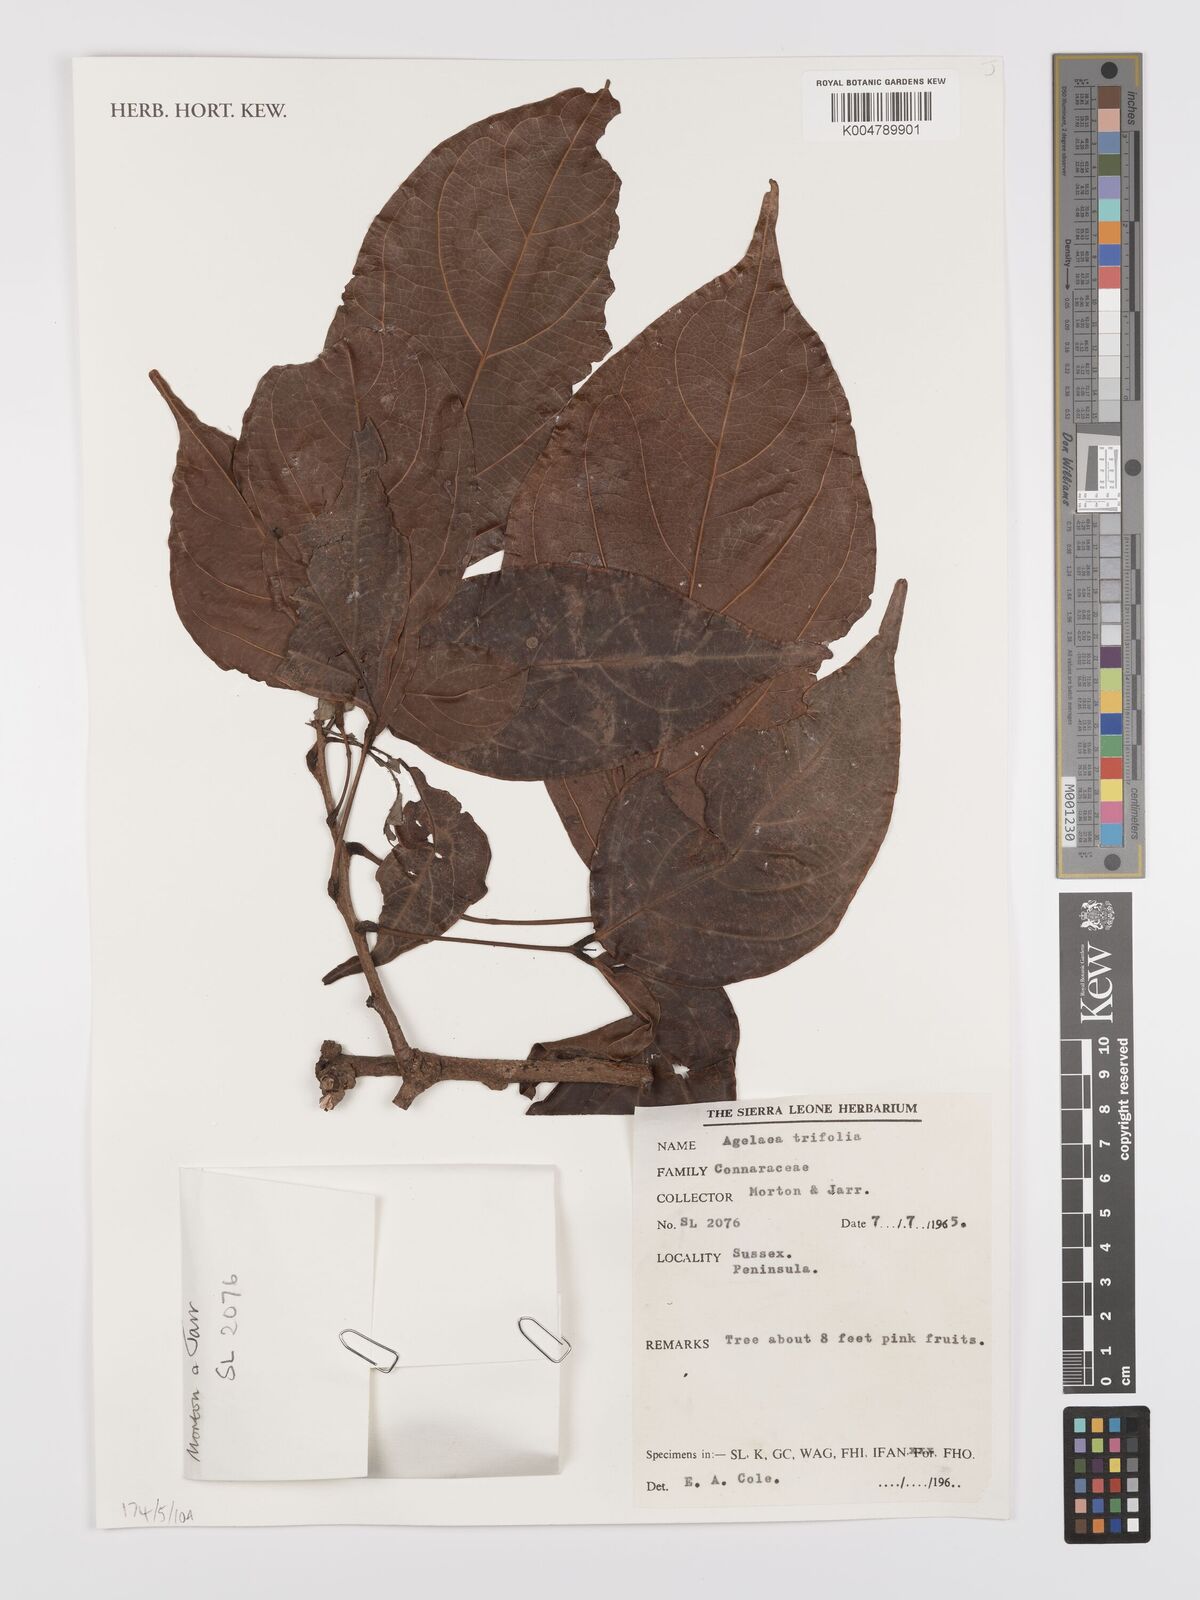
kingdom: Plantae
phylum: Tracheophyta
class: Magnoliopsida
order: Oxalidales
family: Connaraceae
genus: Agelaea
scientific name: Agelaea pentagyna
